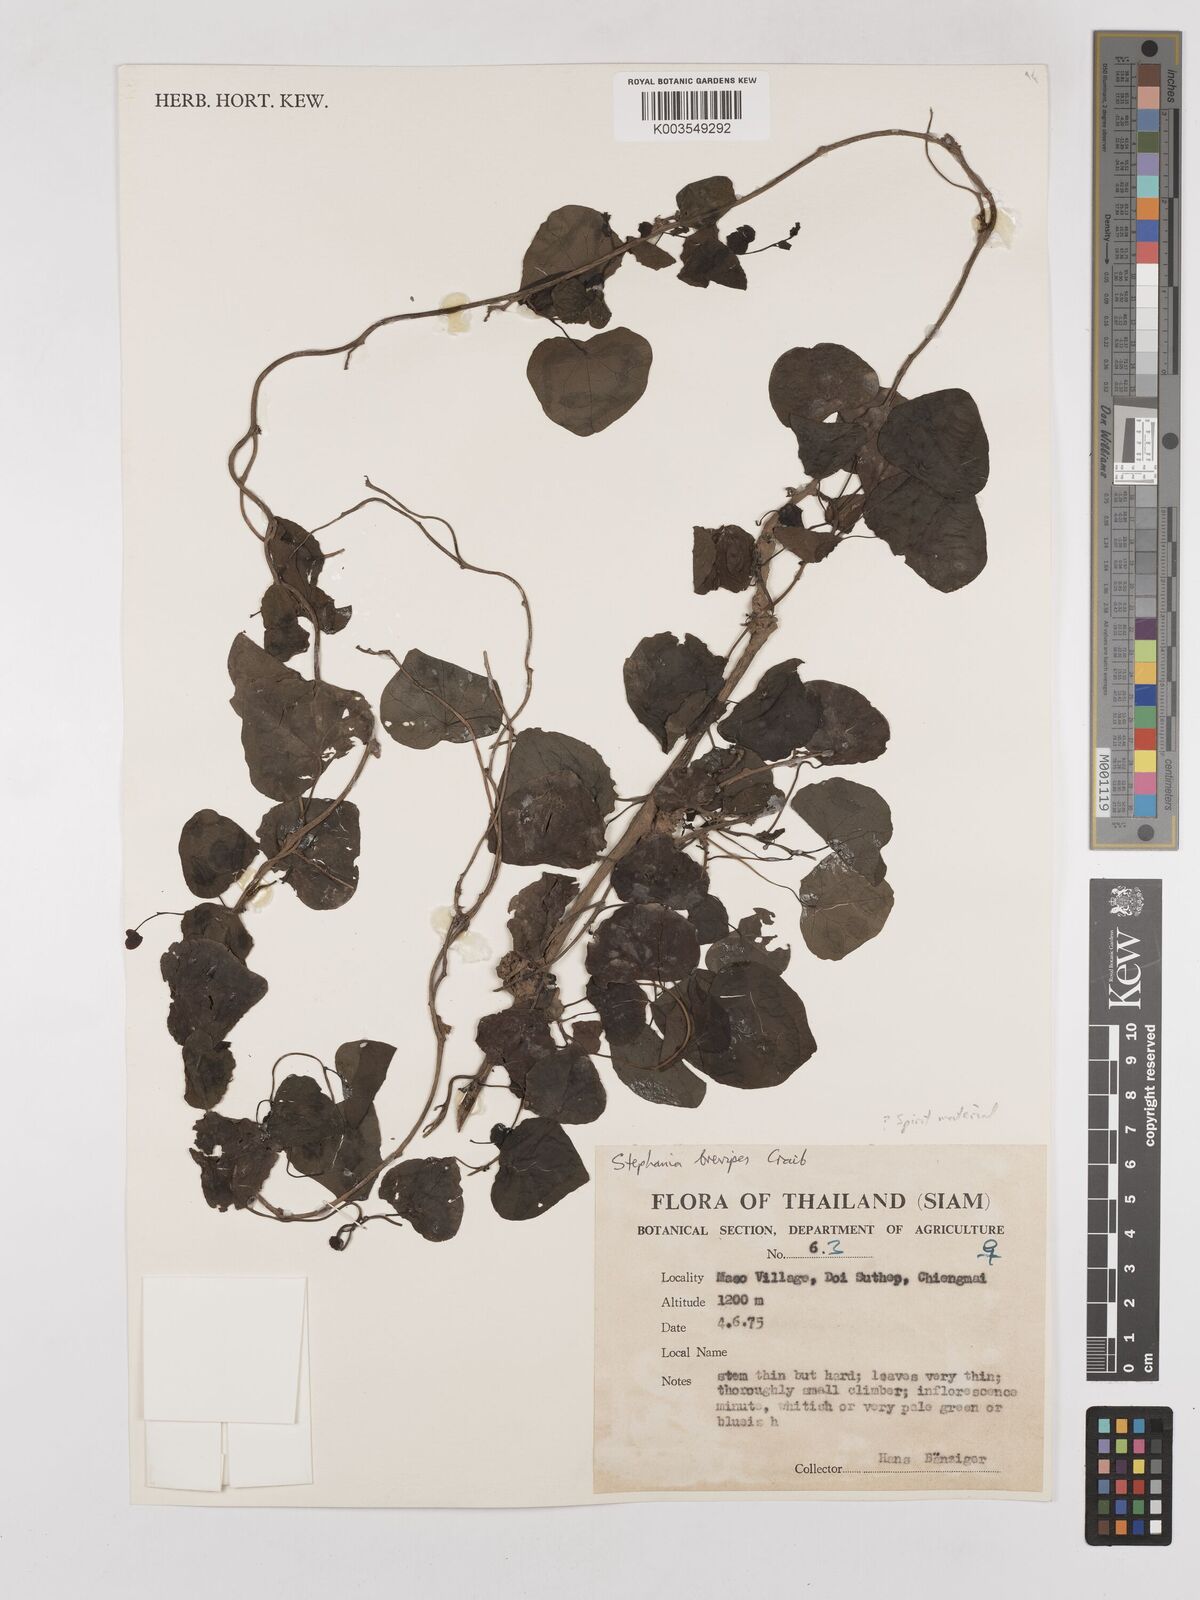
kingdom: Plantae
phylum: Tracheophyta
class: Magnoliopsida
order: Ranunculales
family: Menispermaceae
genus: Stephania
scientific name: Stephania brevipes
